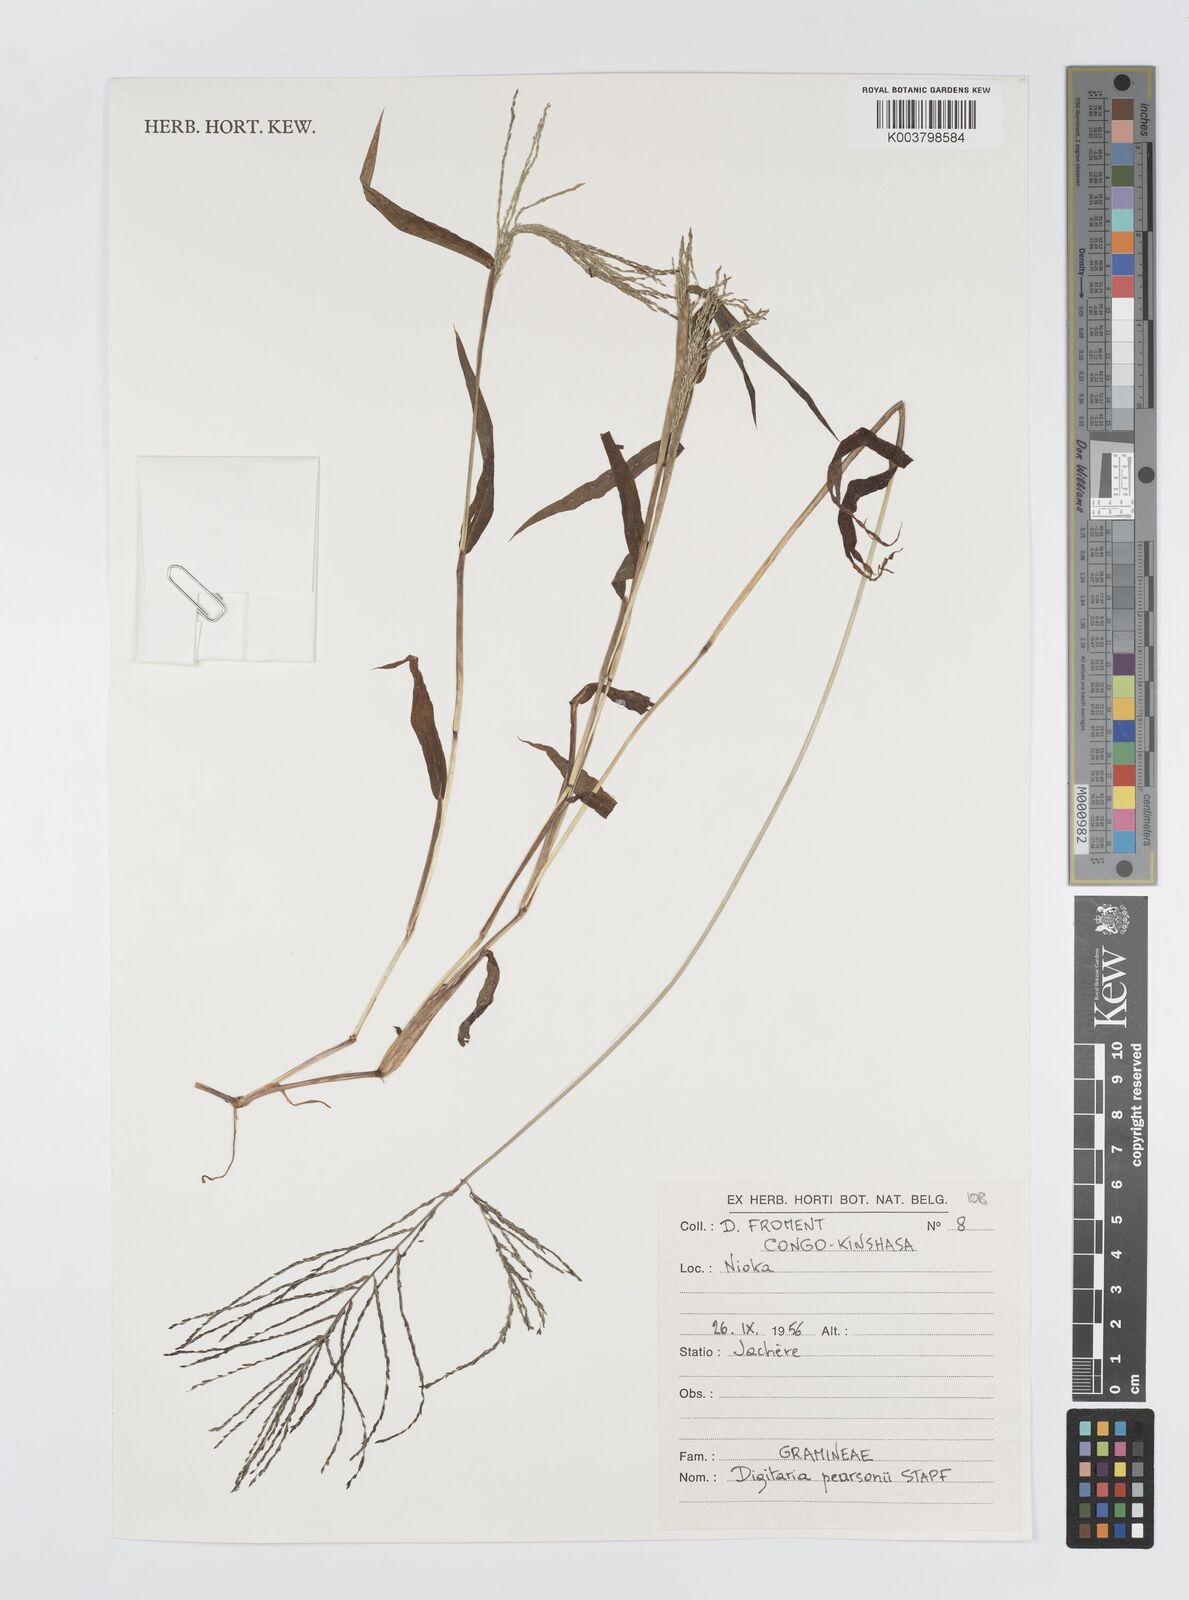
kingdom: Plantae
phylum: Tracheophyta
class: Liliopsida
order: Poales
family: Poaceae
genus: Digitaria
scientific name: Digitaria pearsonii
